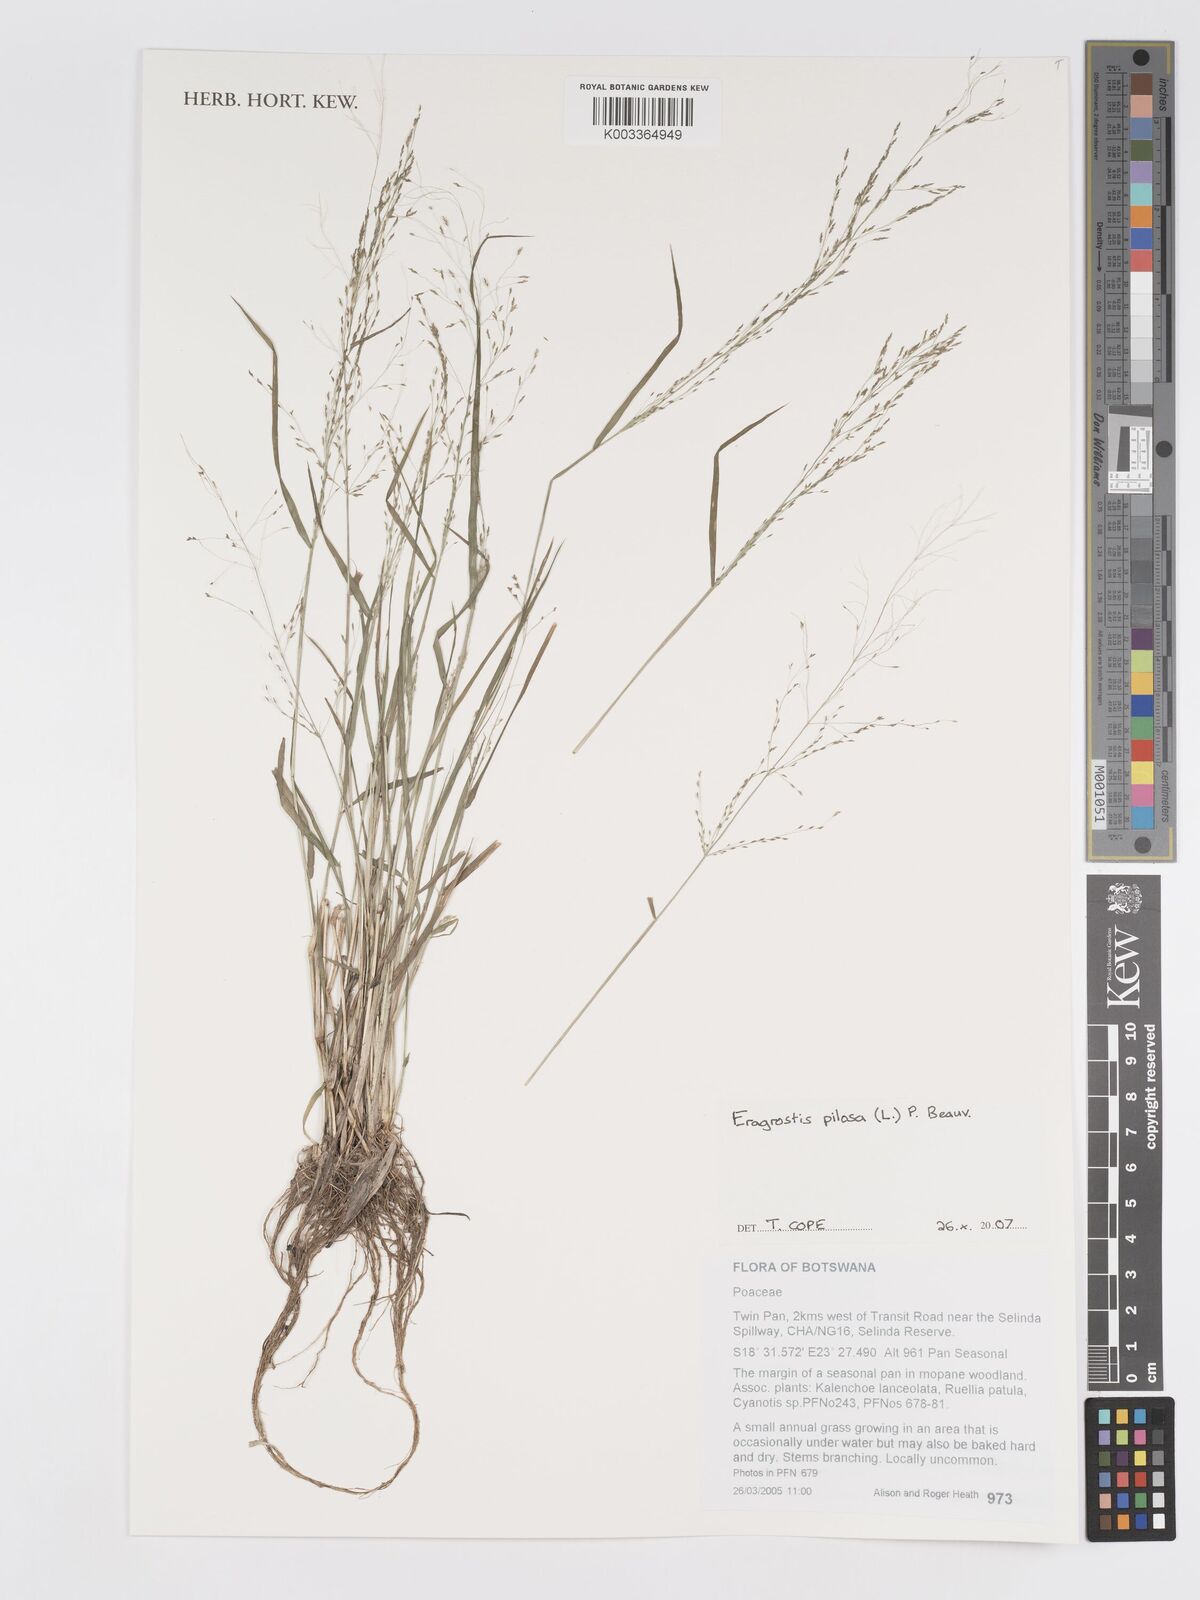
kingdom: Plantae
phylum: Tracheophyta
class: Liliopsida
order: Poales
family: Poaceae
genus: Eragrostis
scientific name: Eragrostis pilosa
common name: Indian lovegrass
